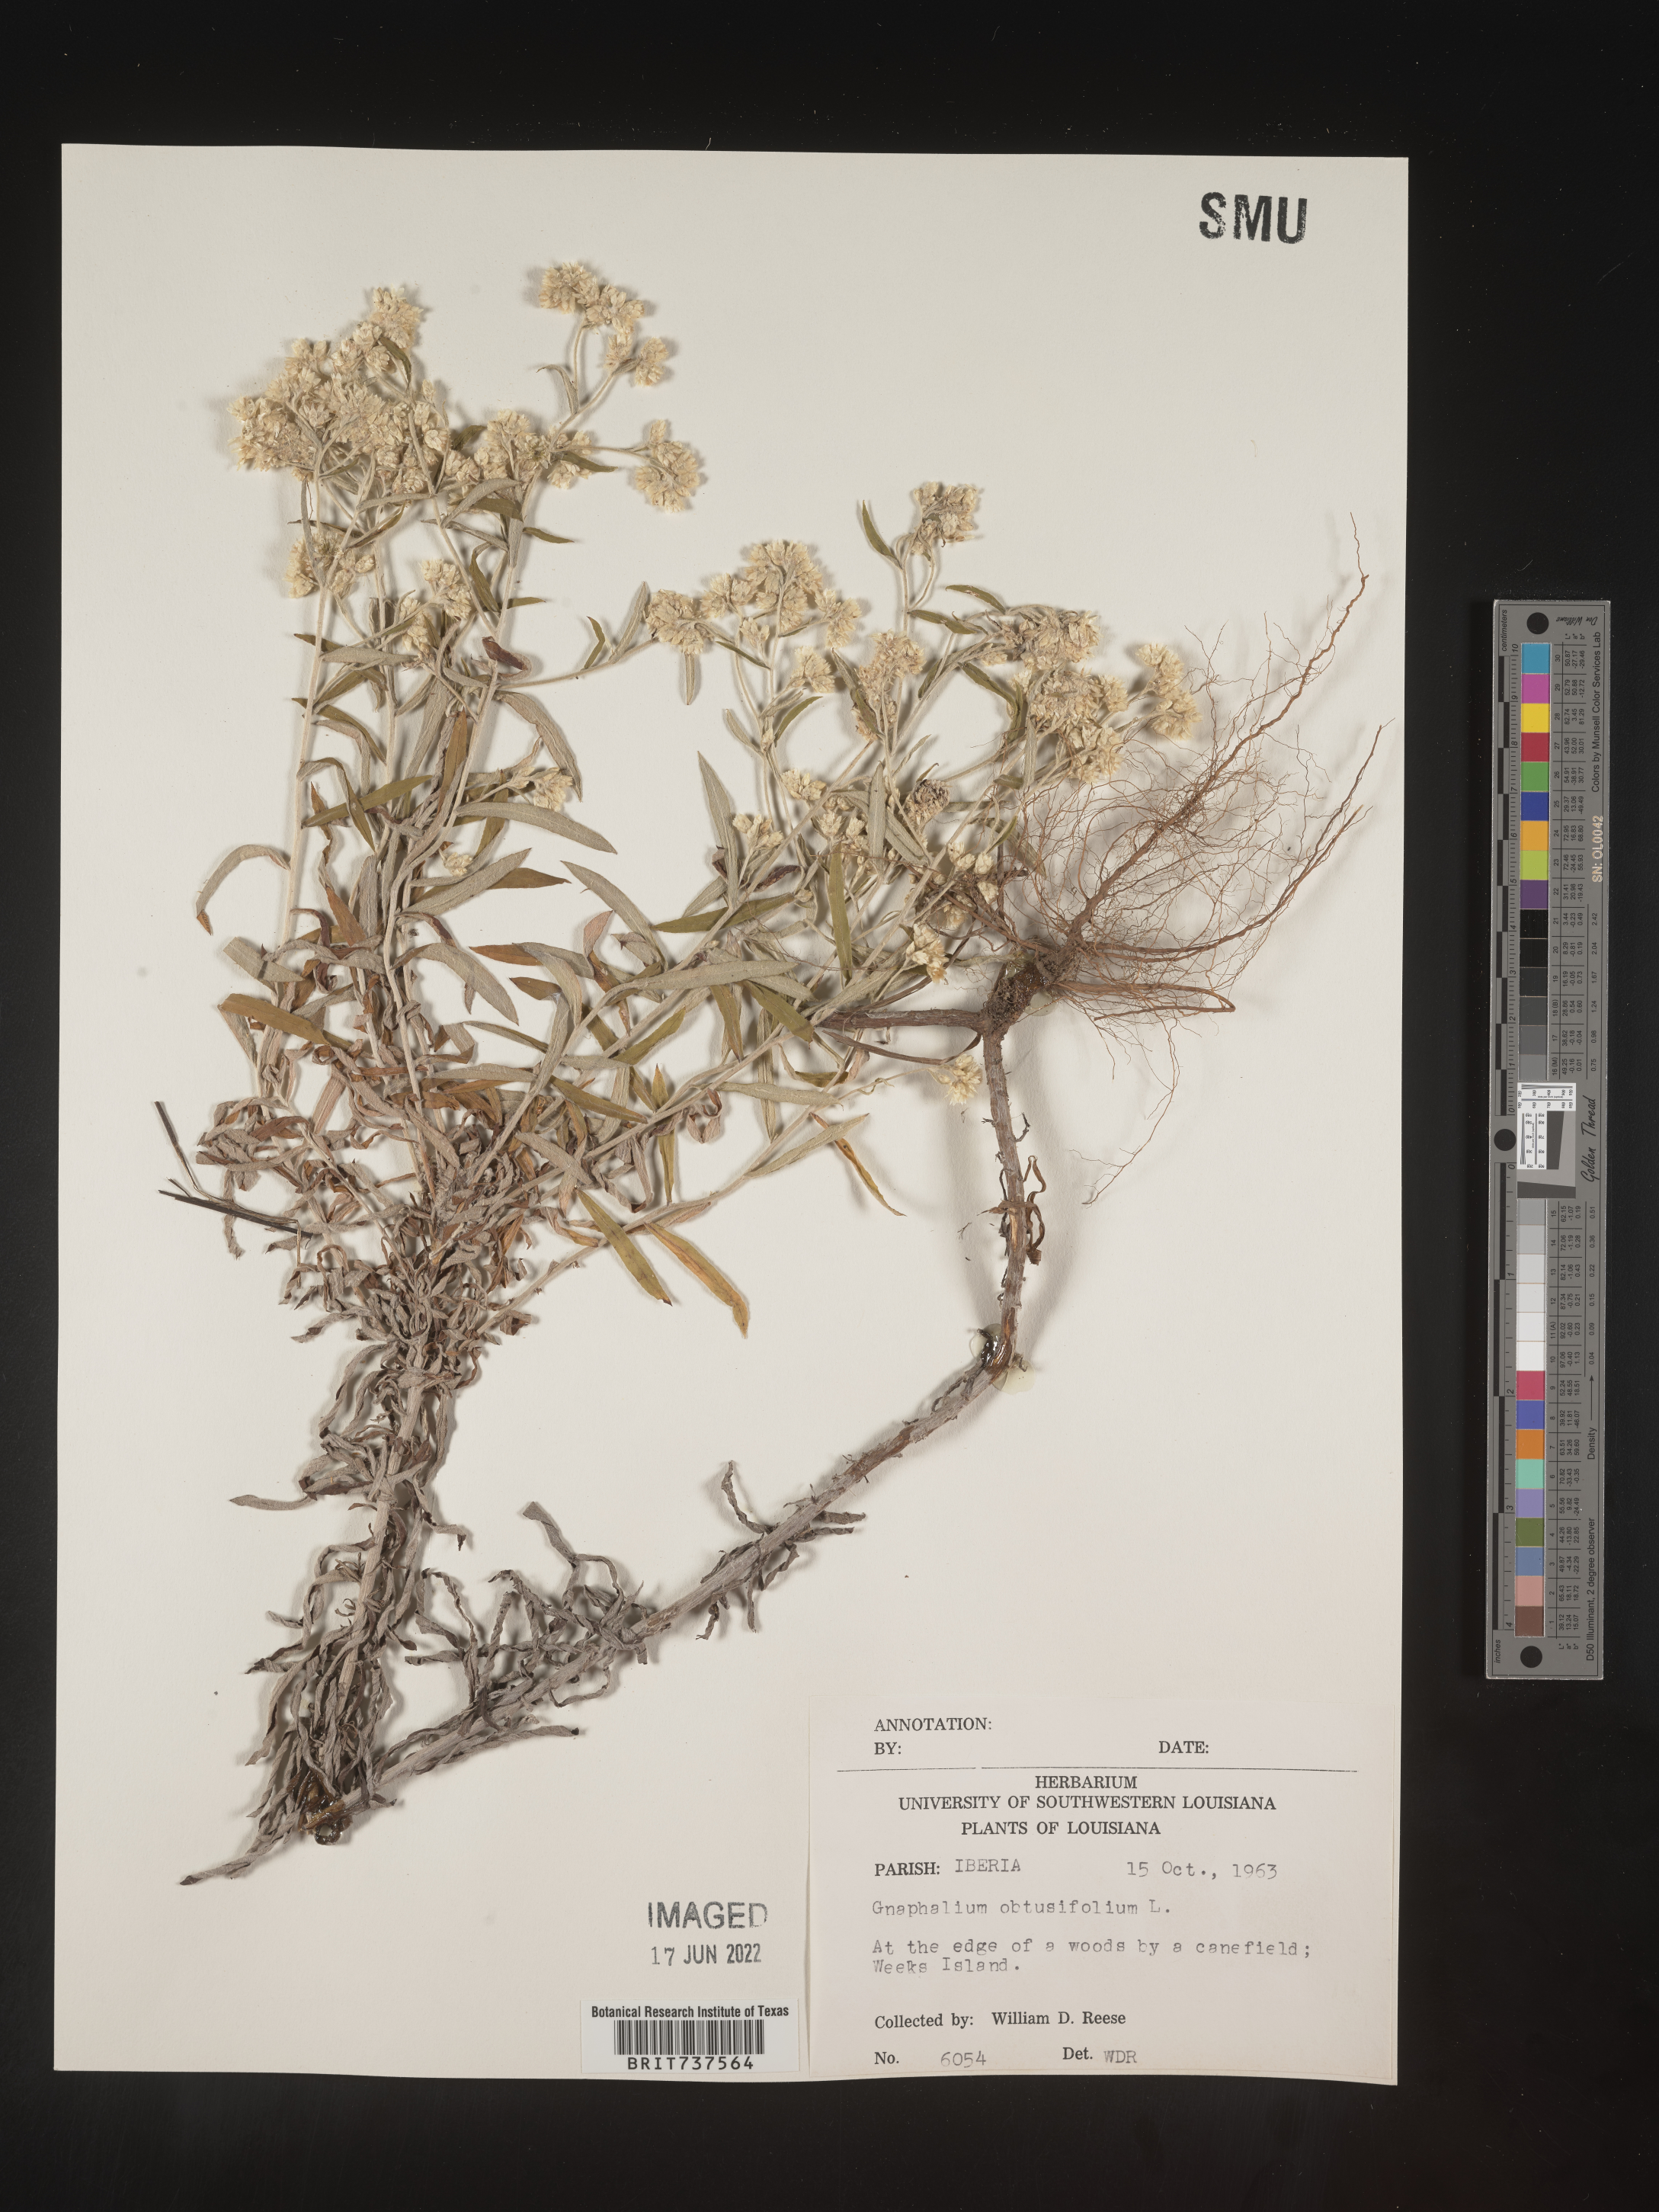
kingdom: Plantae
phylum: Tracheophyta
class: Magnoliopsida
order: Asterales
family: Asteraceae
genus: Pseudognaphalium
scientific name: Pseudognaphalium obtusifolium
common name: Eastern rabbit-tobacco
